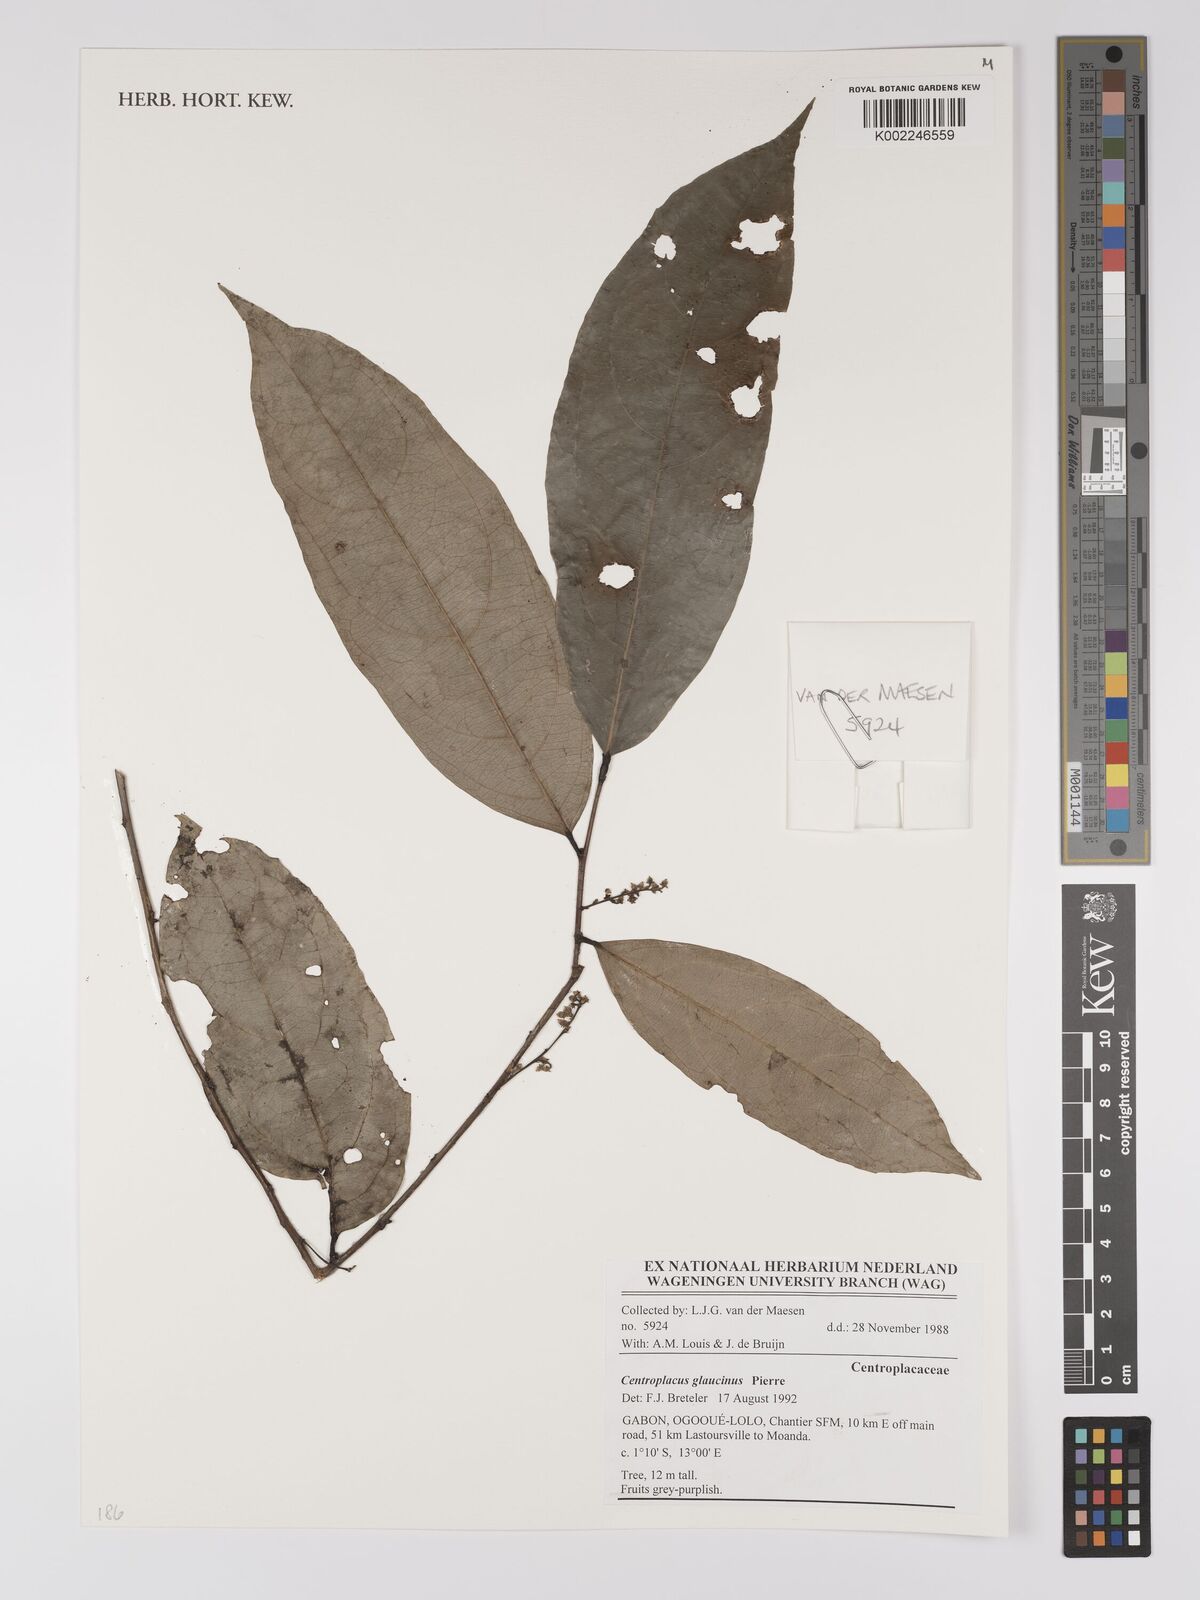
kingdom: Plantae
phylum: Tracheophyta
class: Magnoliopsida
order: Malpighiales
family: Centroplacaceae
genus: Centroplacus
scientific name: Centroplacus glaucinus
